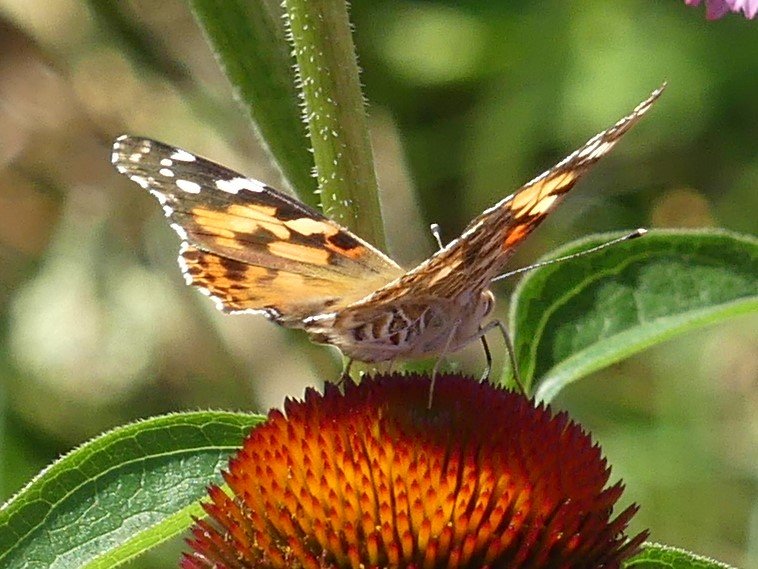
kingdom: Animalia
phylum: Arthropoda
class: Insecta
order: Lepidoptera
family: Nymphalidae
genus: Vanessa
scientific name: Vanessa cardui
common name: Painted Lady
